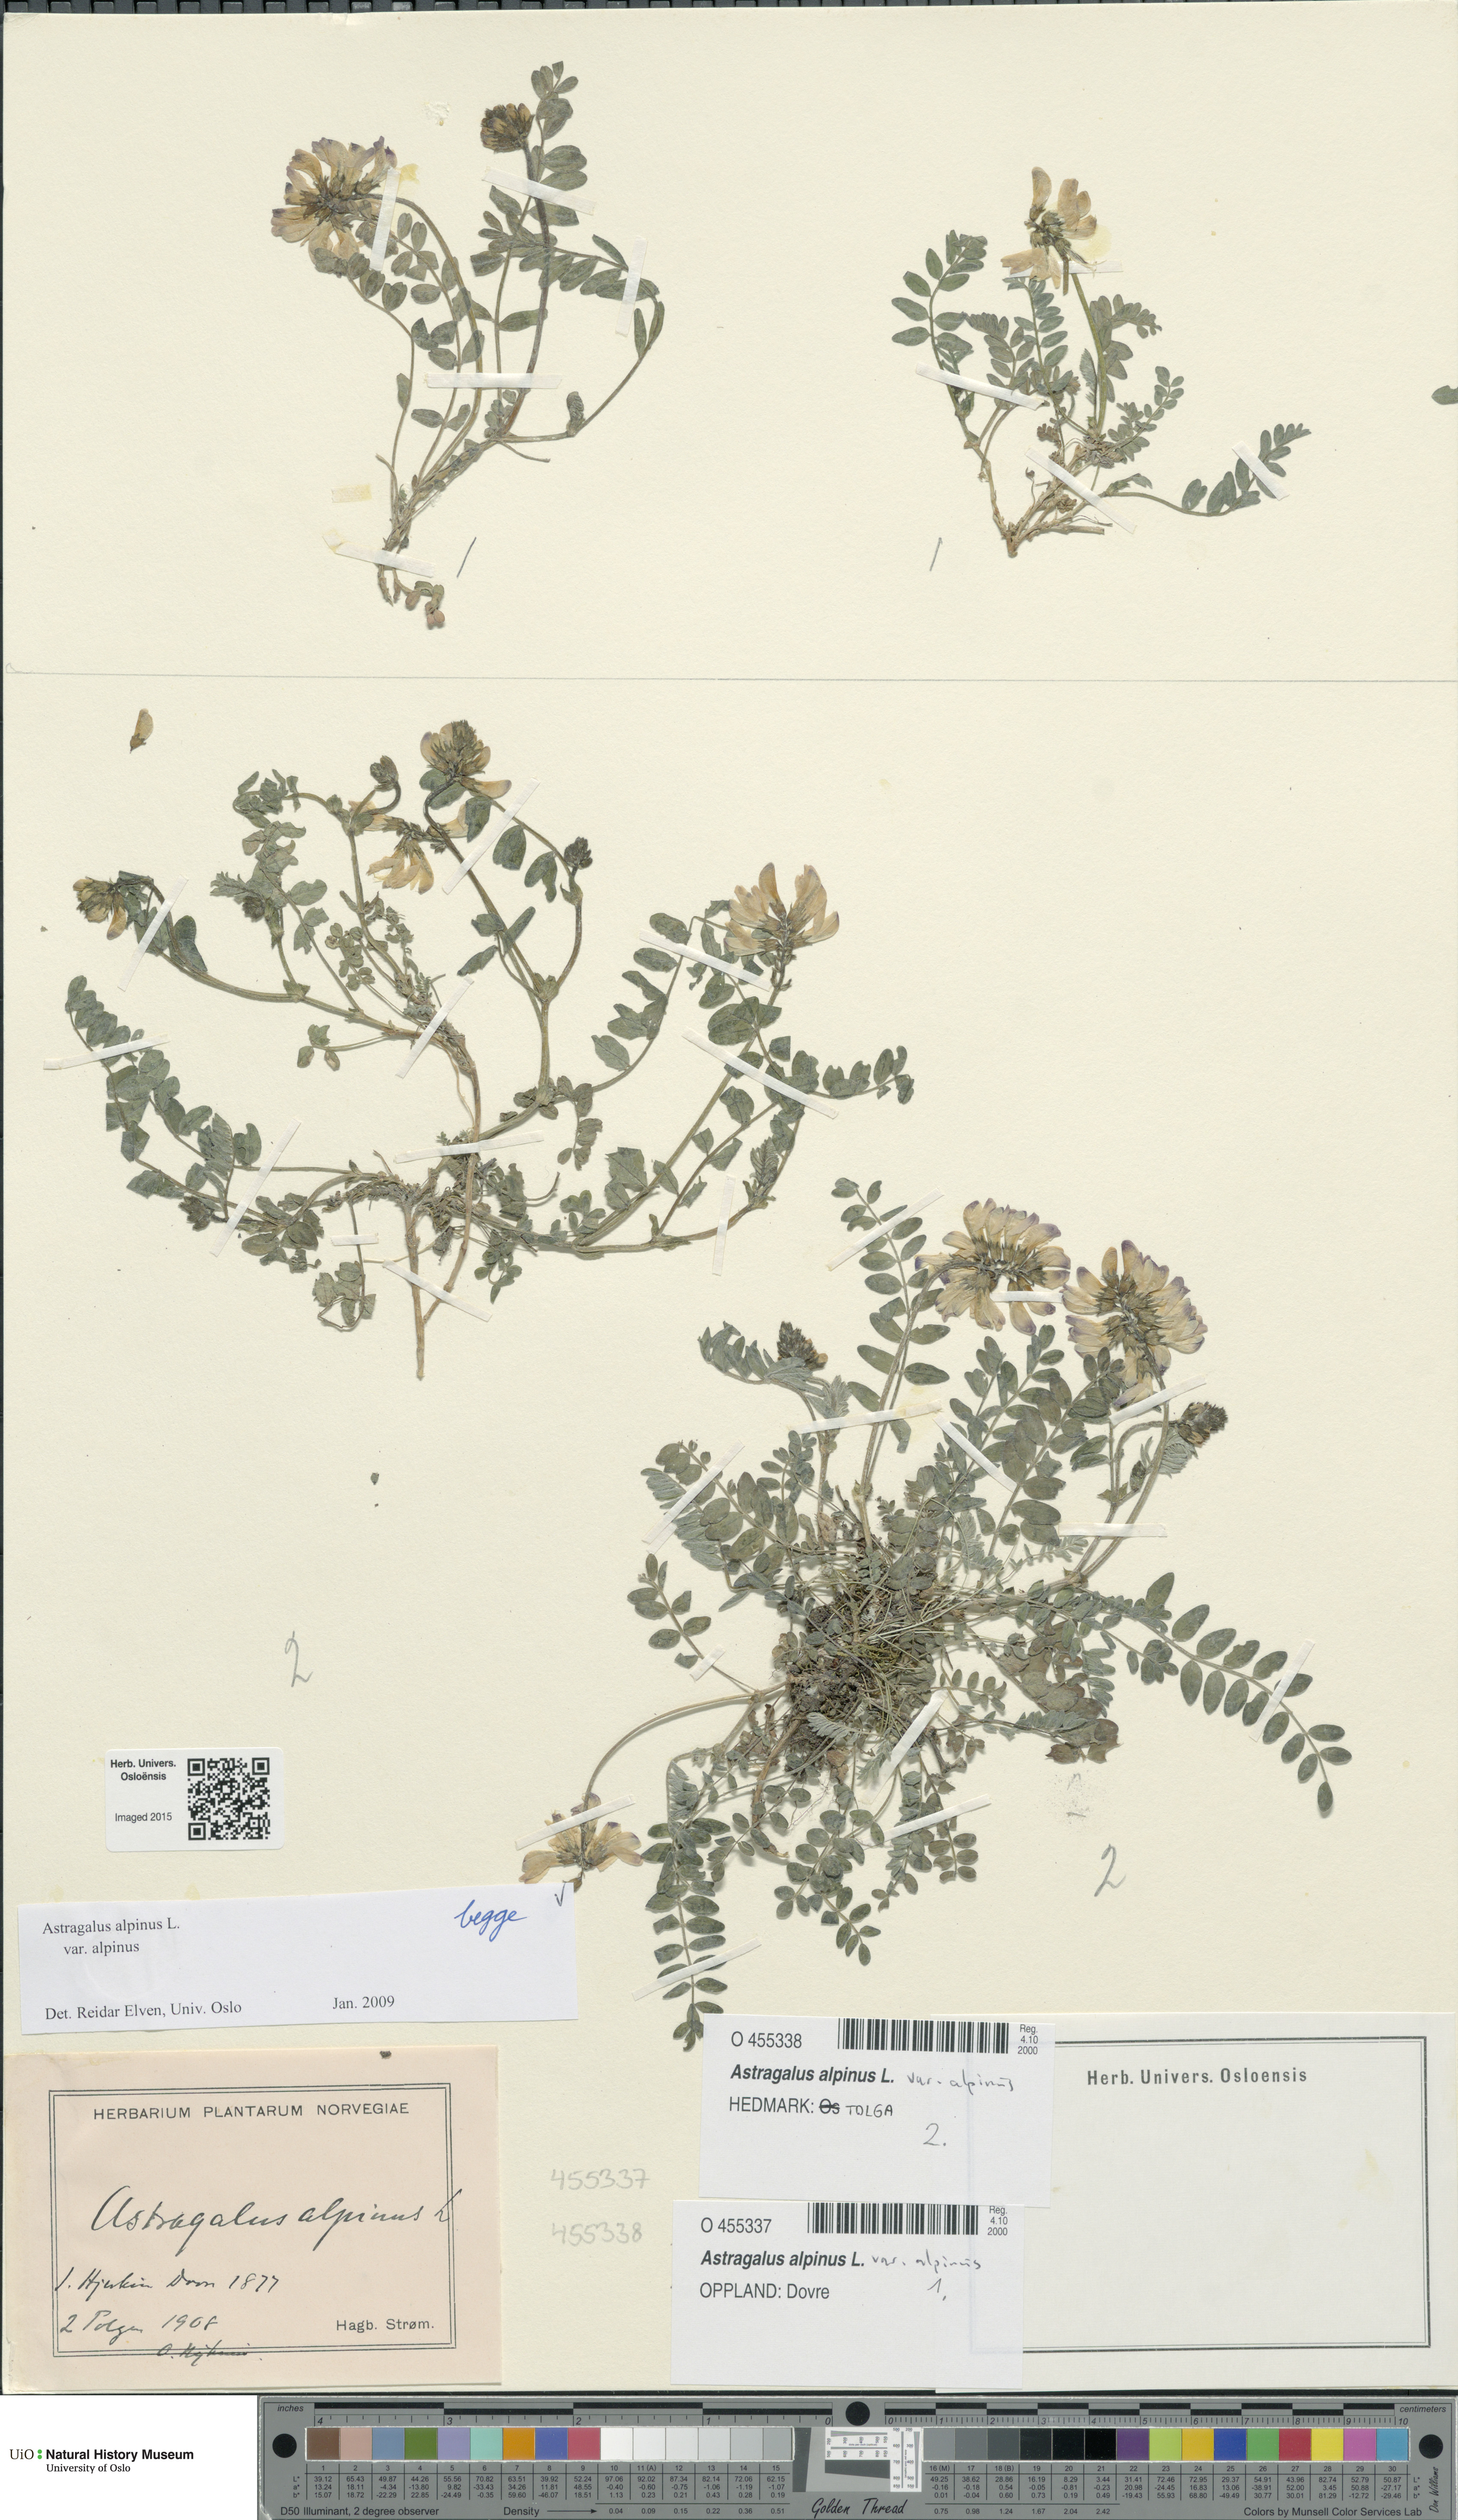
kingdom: Plantae
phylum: Tracheophyta
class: Magnoliopsida
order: Fabales
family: Fabaceae
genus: Astragalus
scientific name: Astragalus alpinus
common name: Alpine milk-vetch
